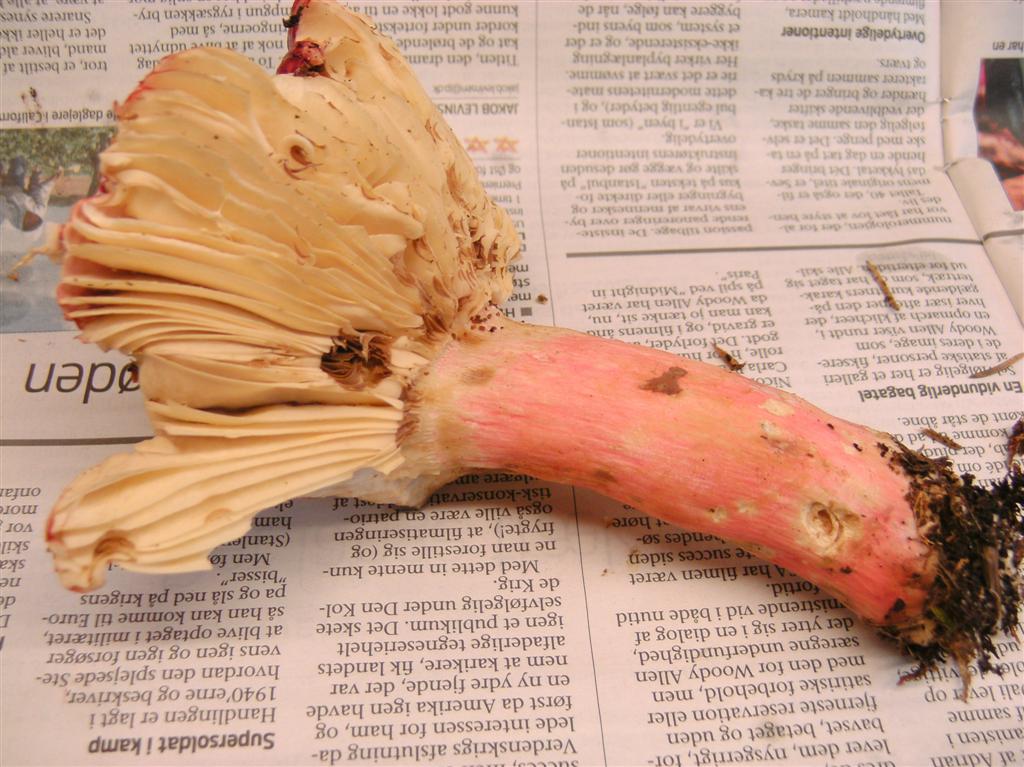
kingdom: Fungi
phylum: Basidiomycota
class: Agaricomycetes
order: Russulales
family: Russulaceae
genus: Russula
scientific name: Russula xerampelina
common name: hummer-skørhat
